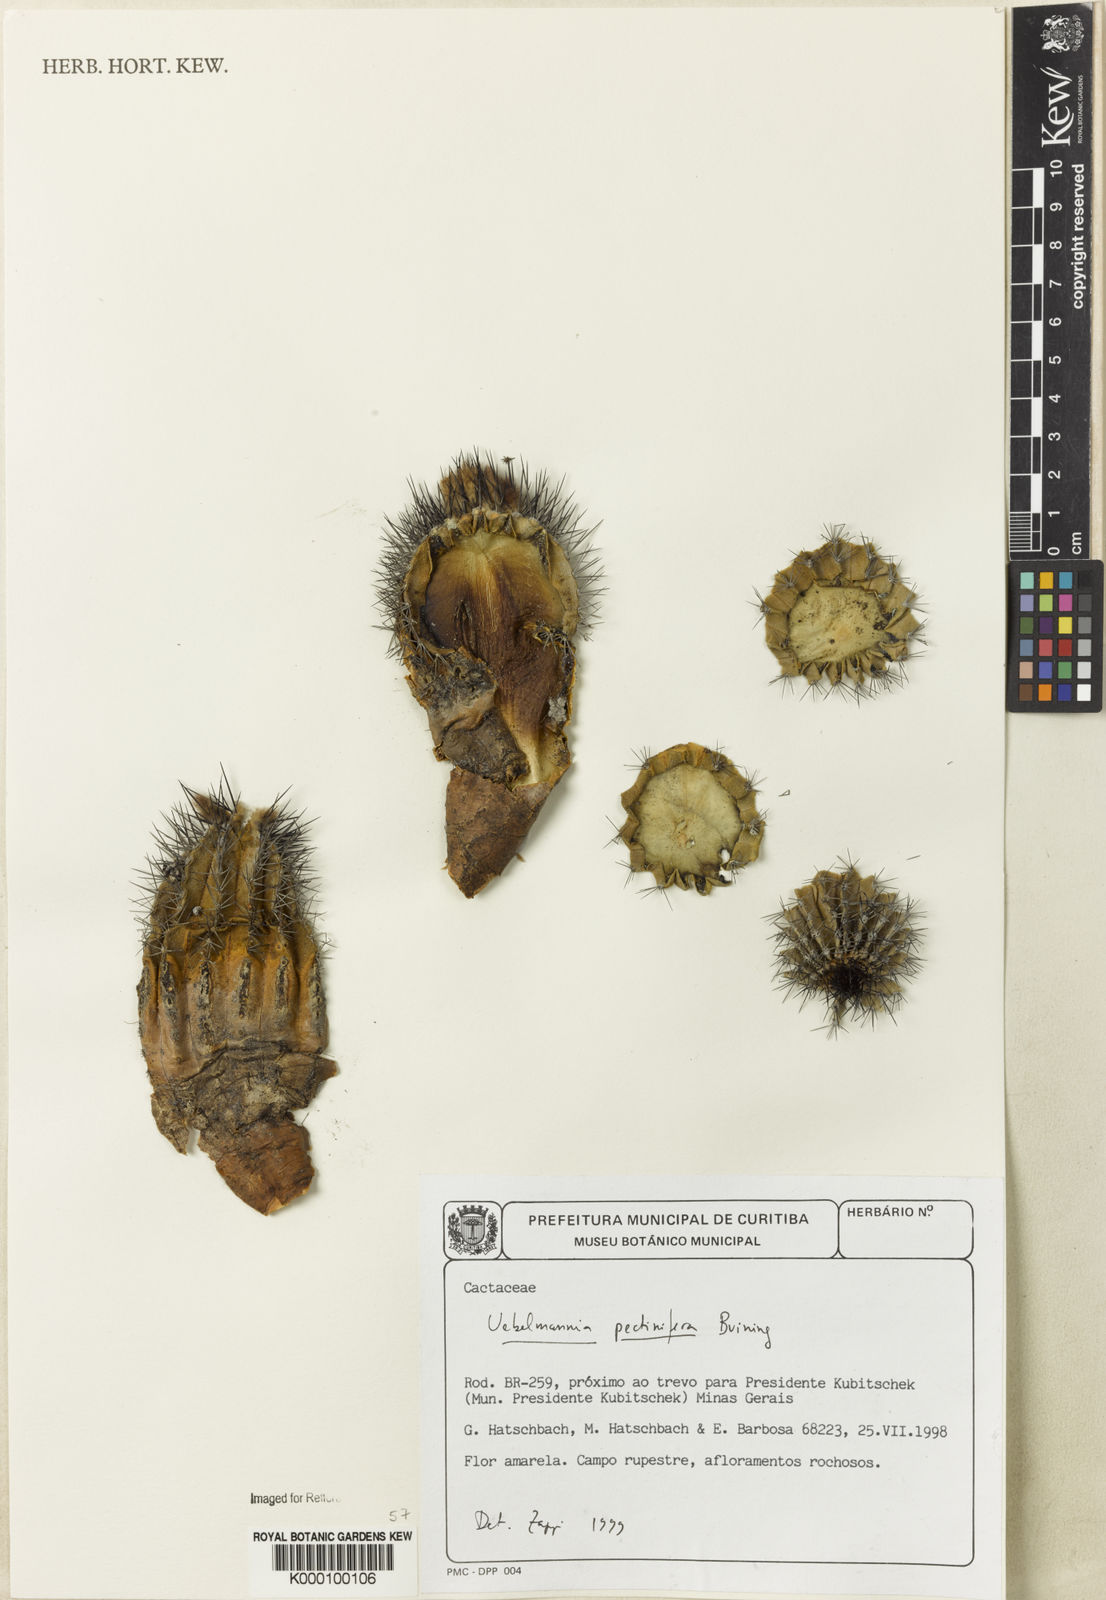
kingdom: Plantae
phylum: Tracheophyta
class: Magnoliopsida
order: Caryophyllales
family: Cactaceae
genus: Uebelmannia
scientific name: Uebelmannia pectinifera
